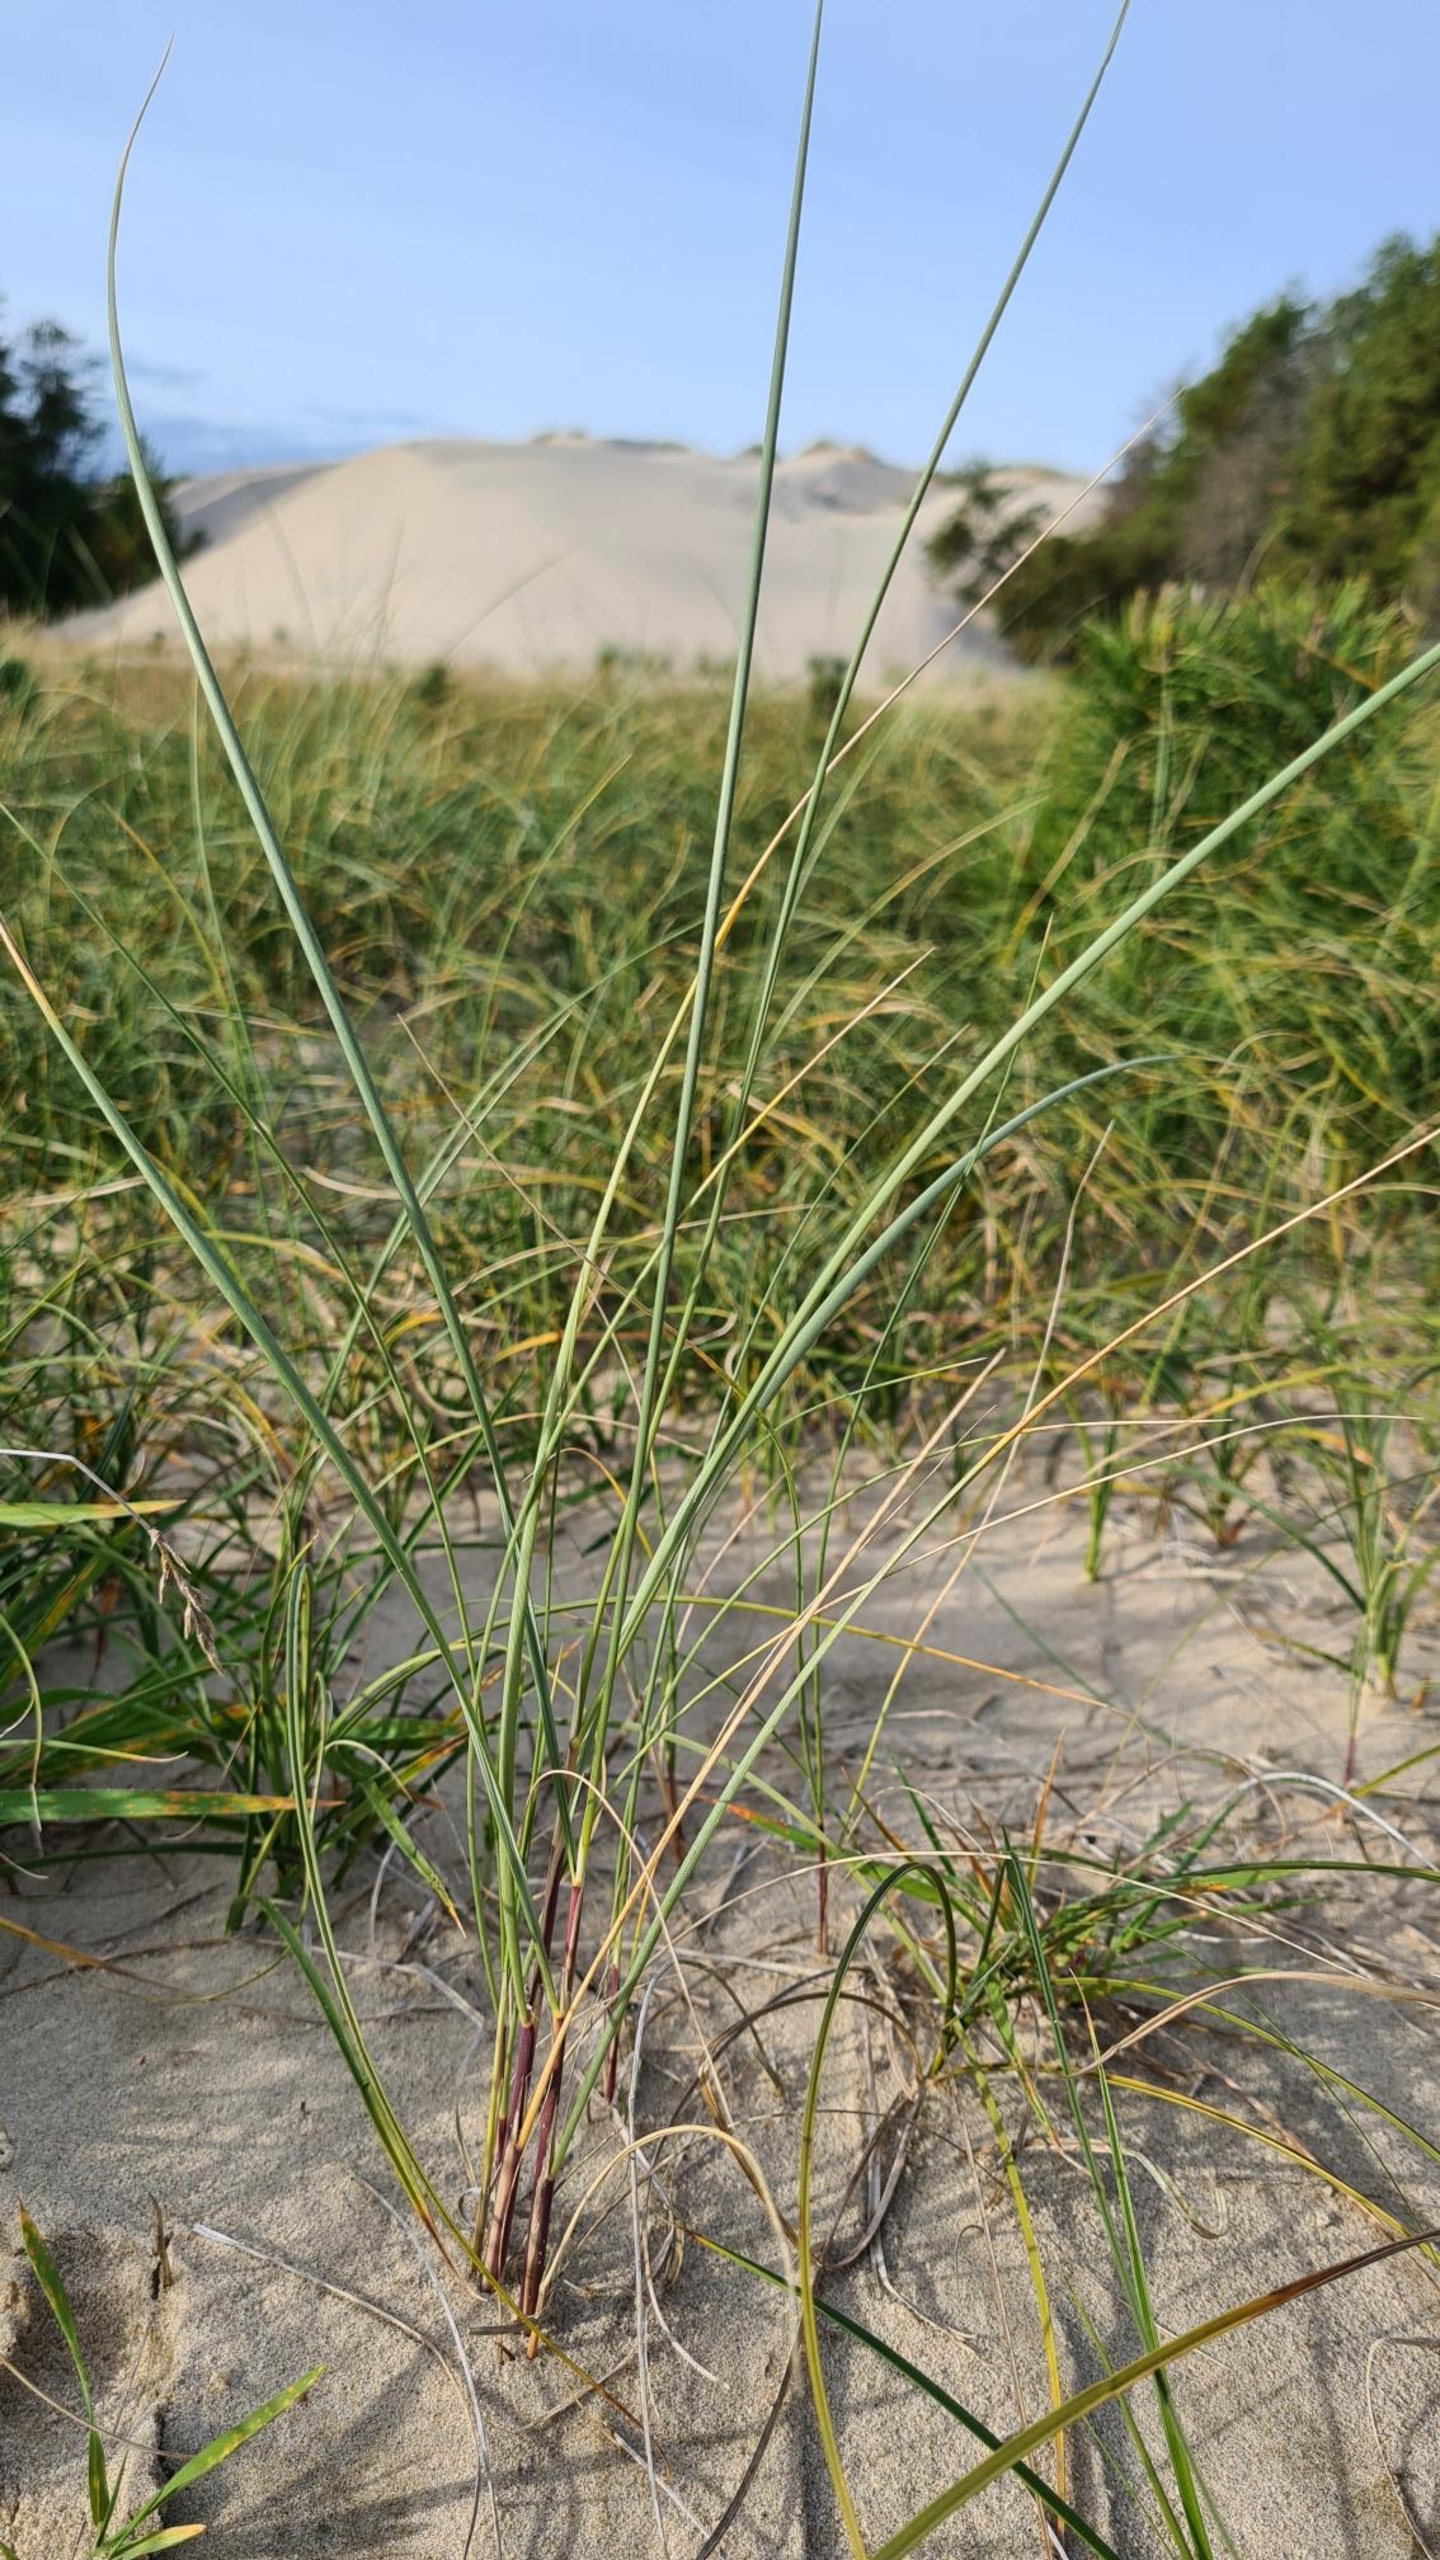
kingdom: Plantae
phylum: Tracheophyta
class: Liliopsida
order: Poales
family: Poaceae
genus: Calamagrostis
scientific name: Calamagrostis arenaria
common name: Sand-hjælme
